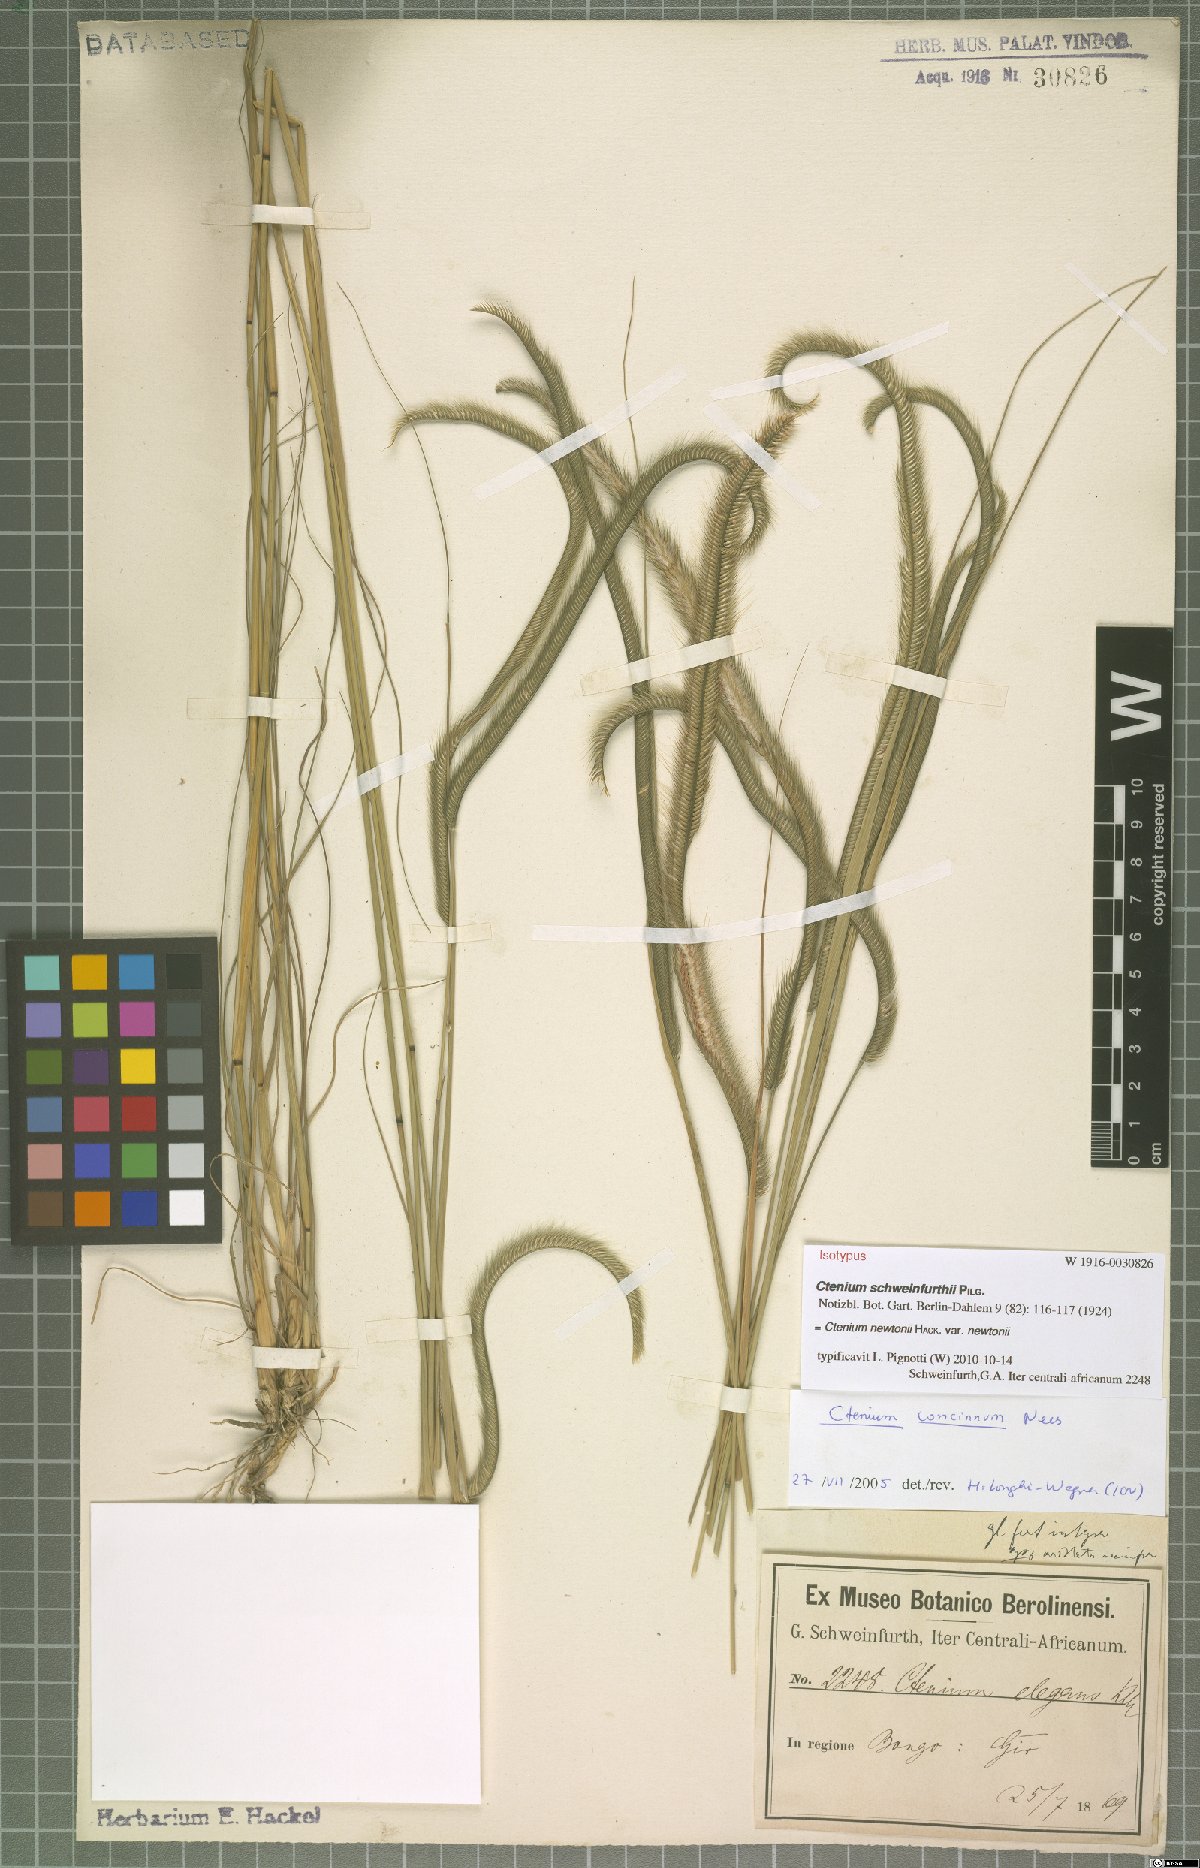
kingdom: Plantae
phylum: Tracheophyta
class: Liliopsida
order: Poales
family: Poaceae
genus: Ctenium
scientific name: Ctenium newtonii
